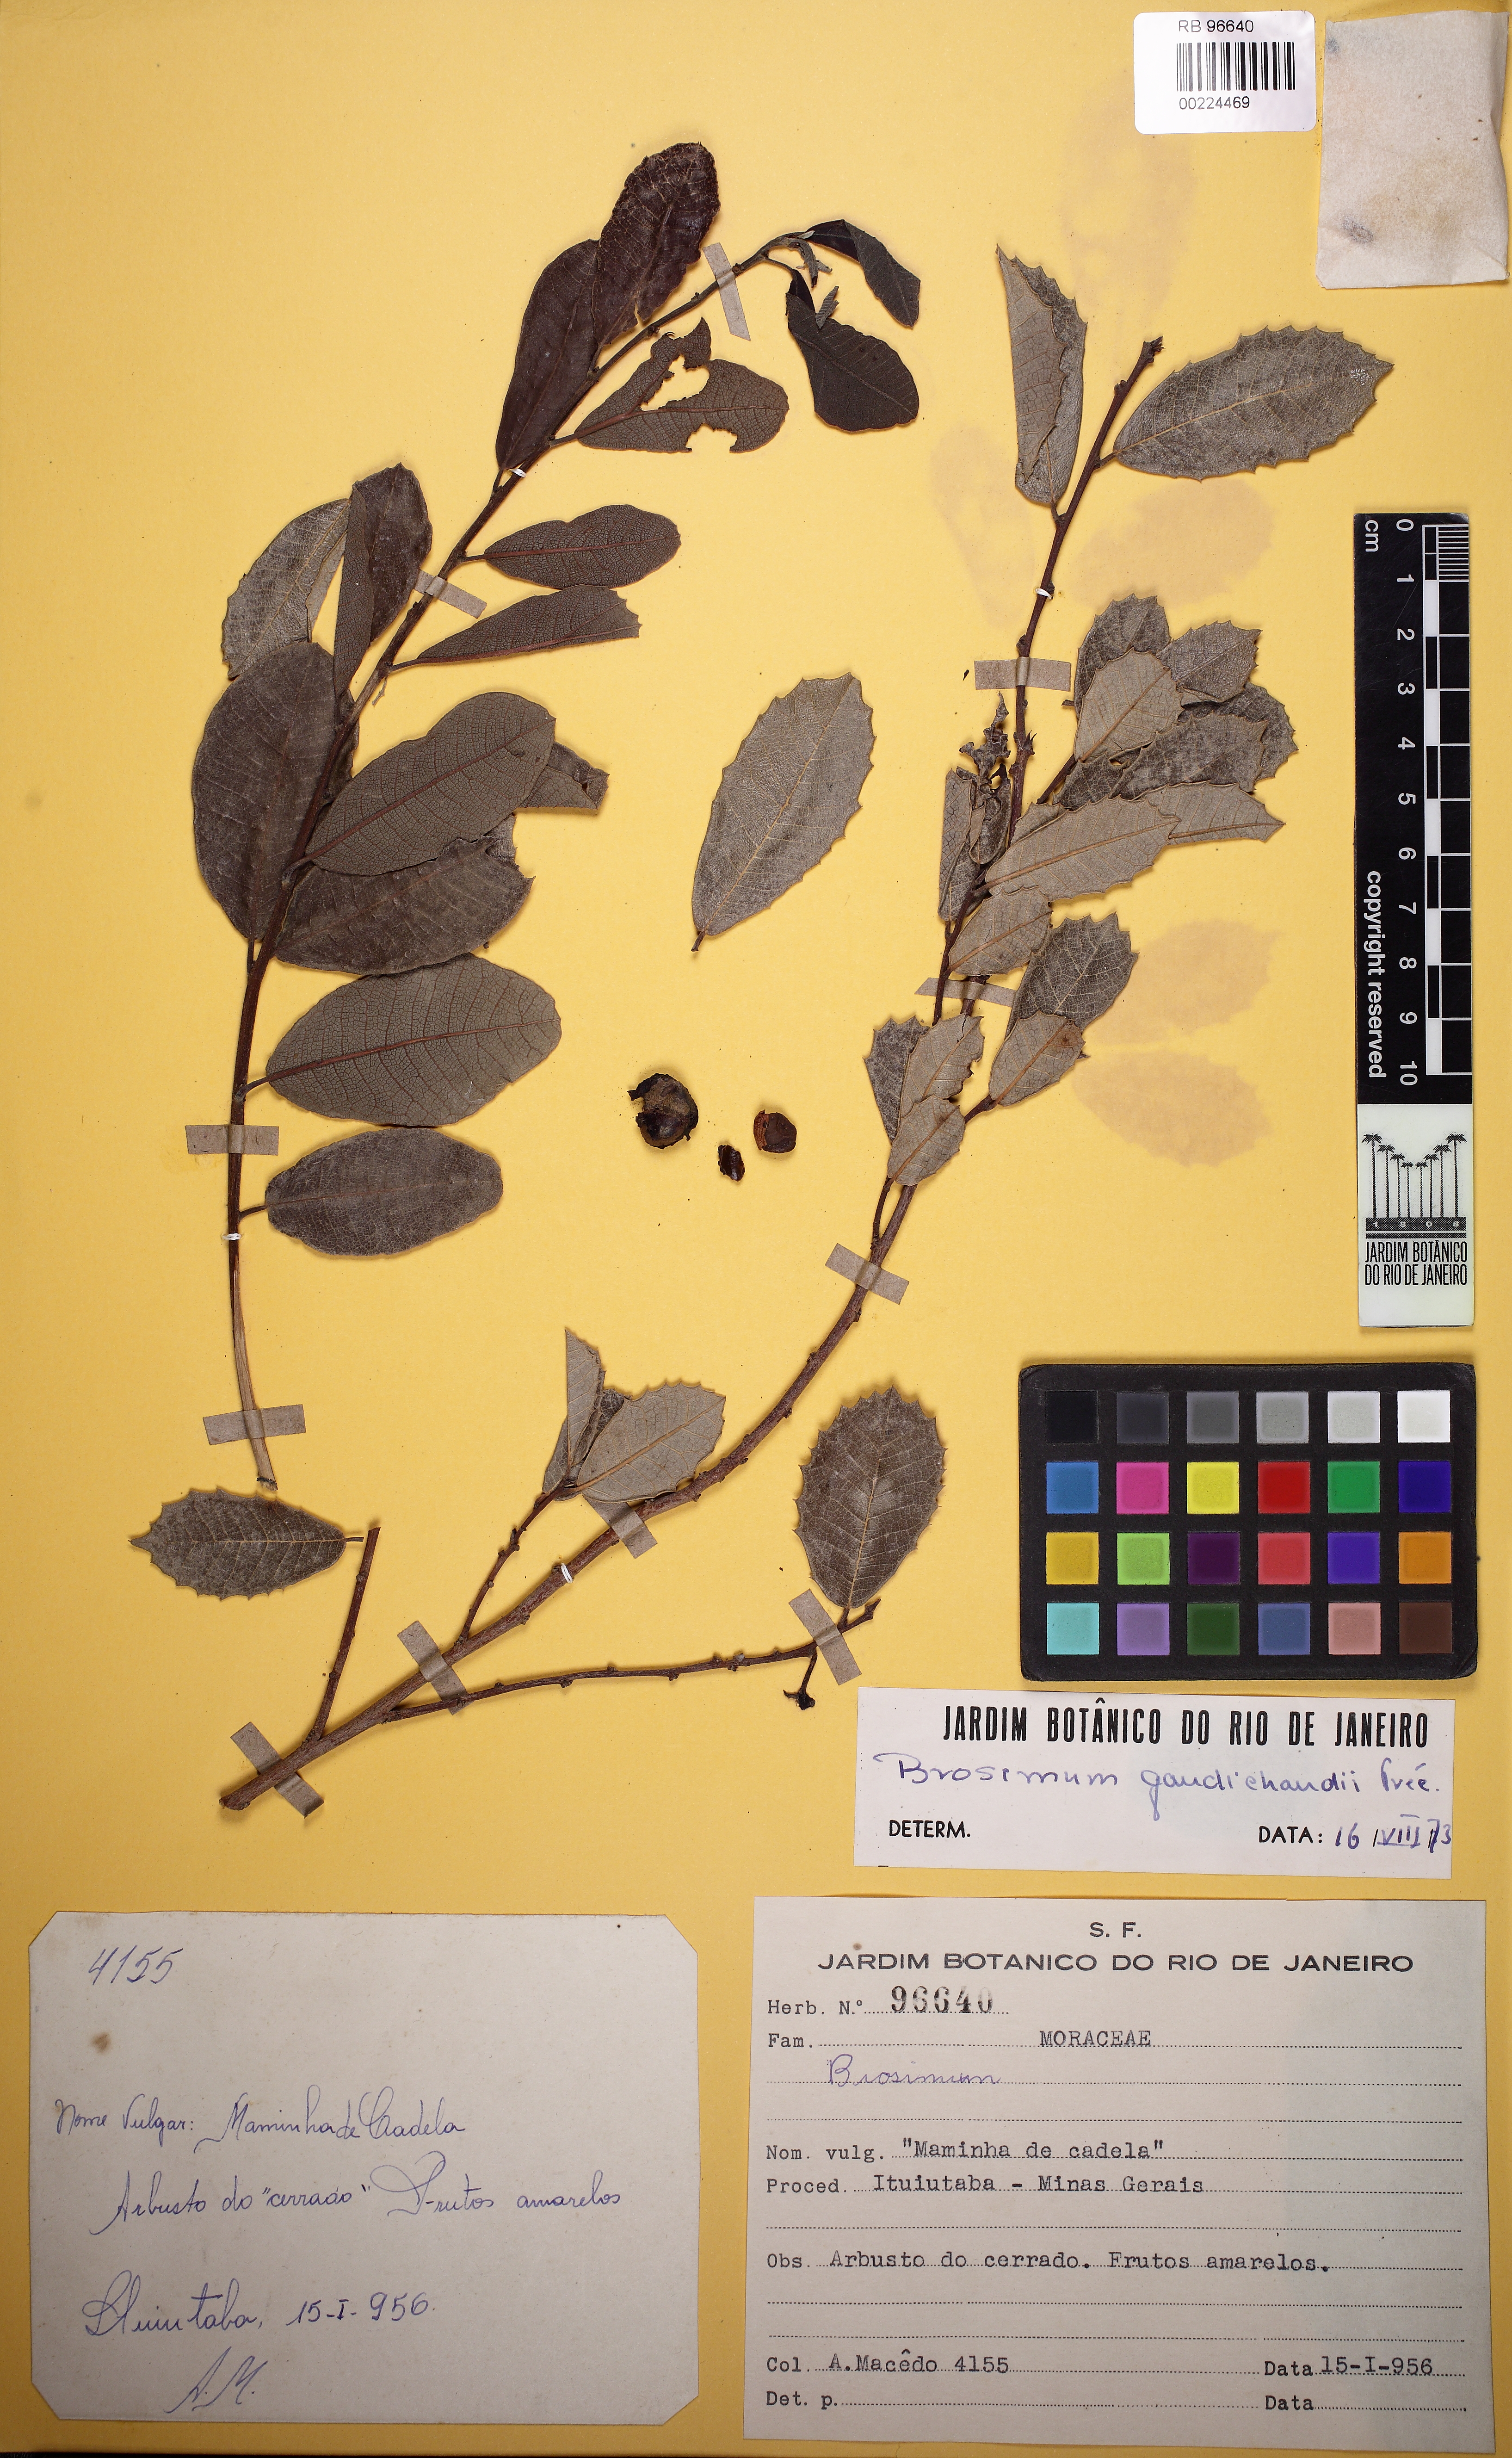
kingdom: Plantae
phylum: Tracheophyta
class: Magnoliopsida
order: Rosales
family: Moraceae
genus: Brosimum
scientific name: Brosimum gaudichaudii
